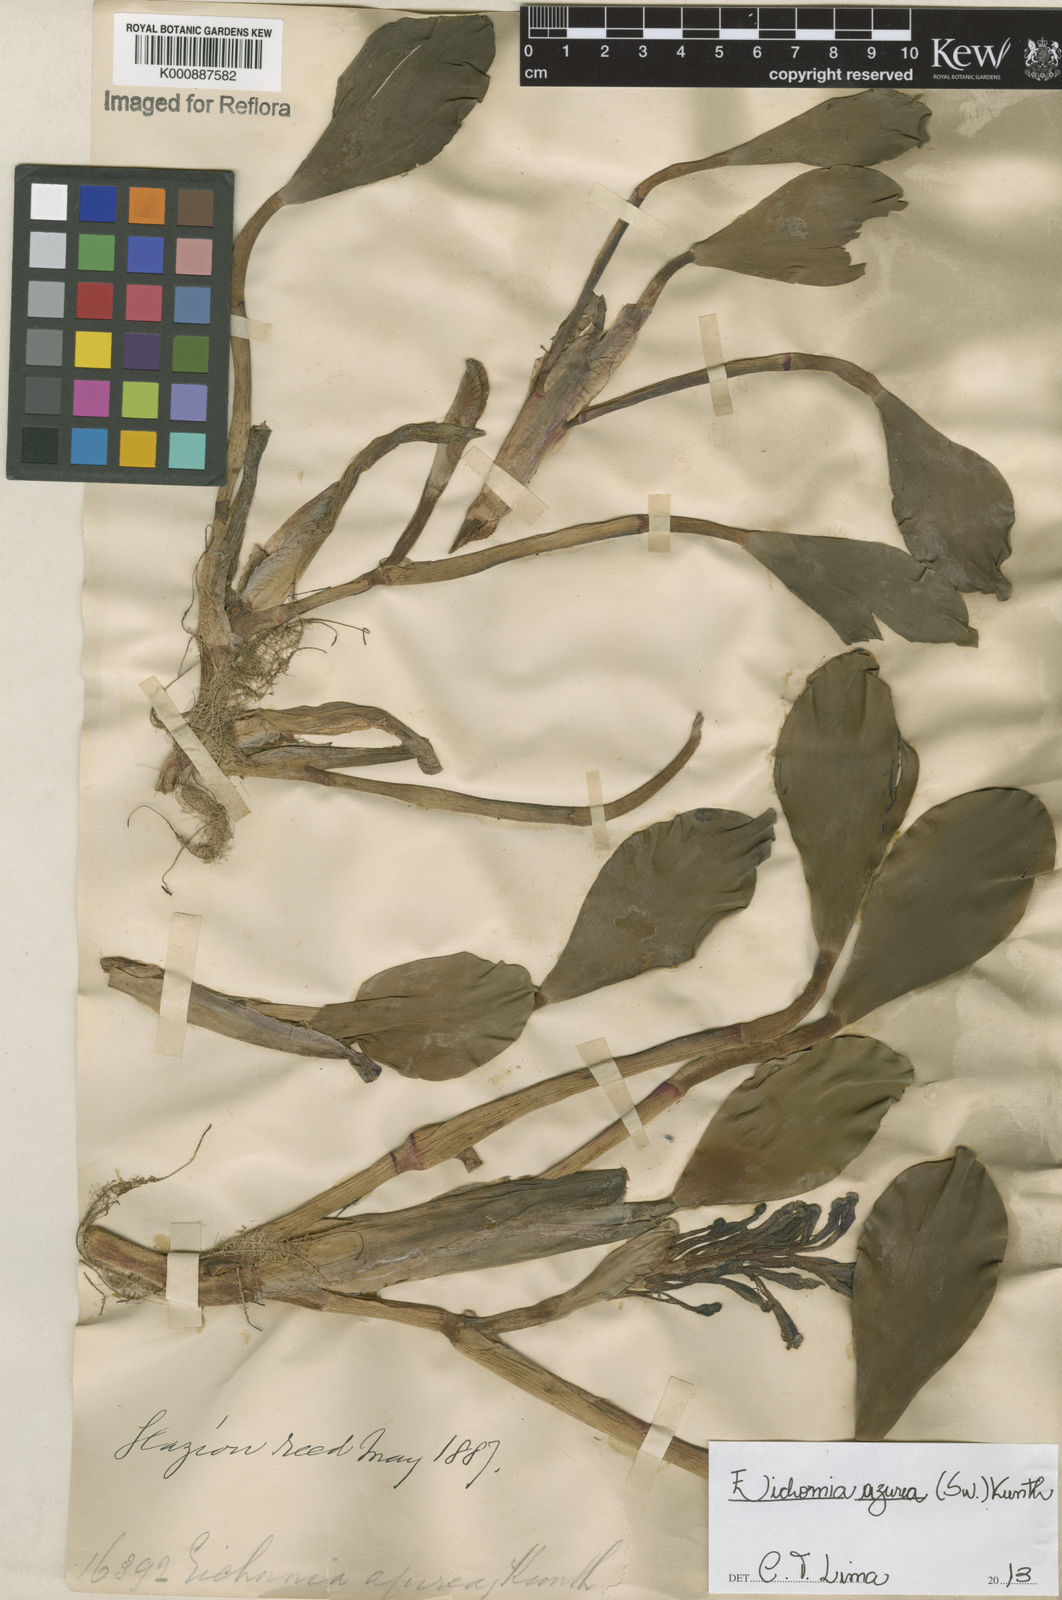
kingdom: Plantae
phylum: Tracheophyta
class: Liliopsida
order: Commelinales
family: Pontederiaceae
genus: Pontederia
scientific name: Pontederia azurea
